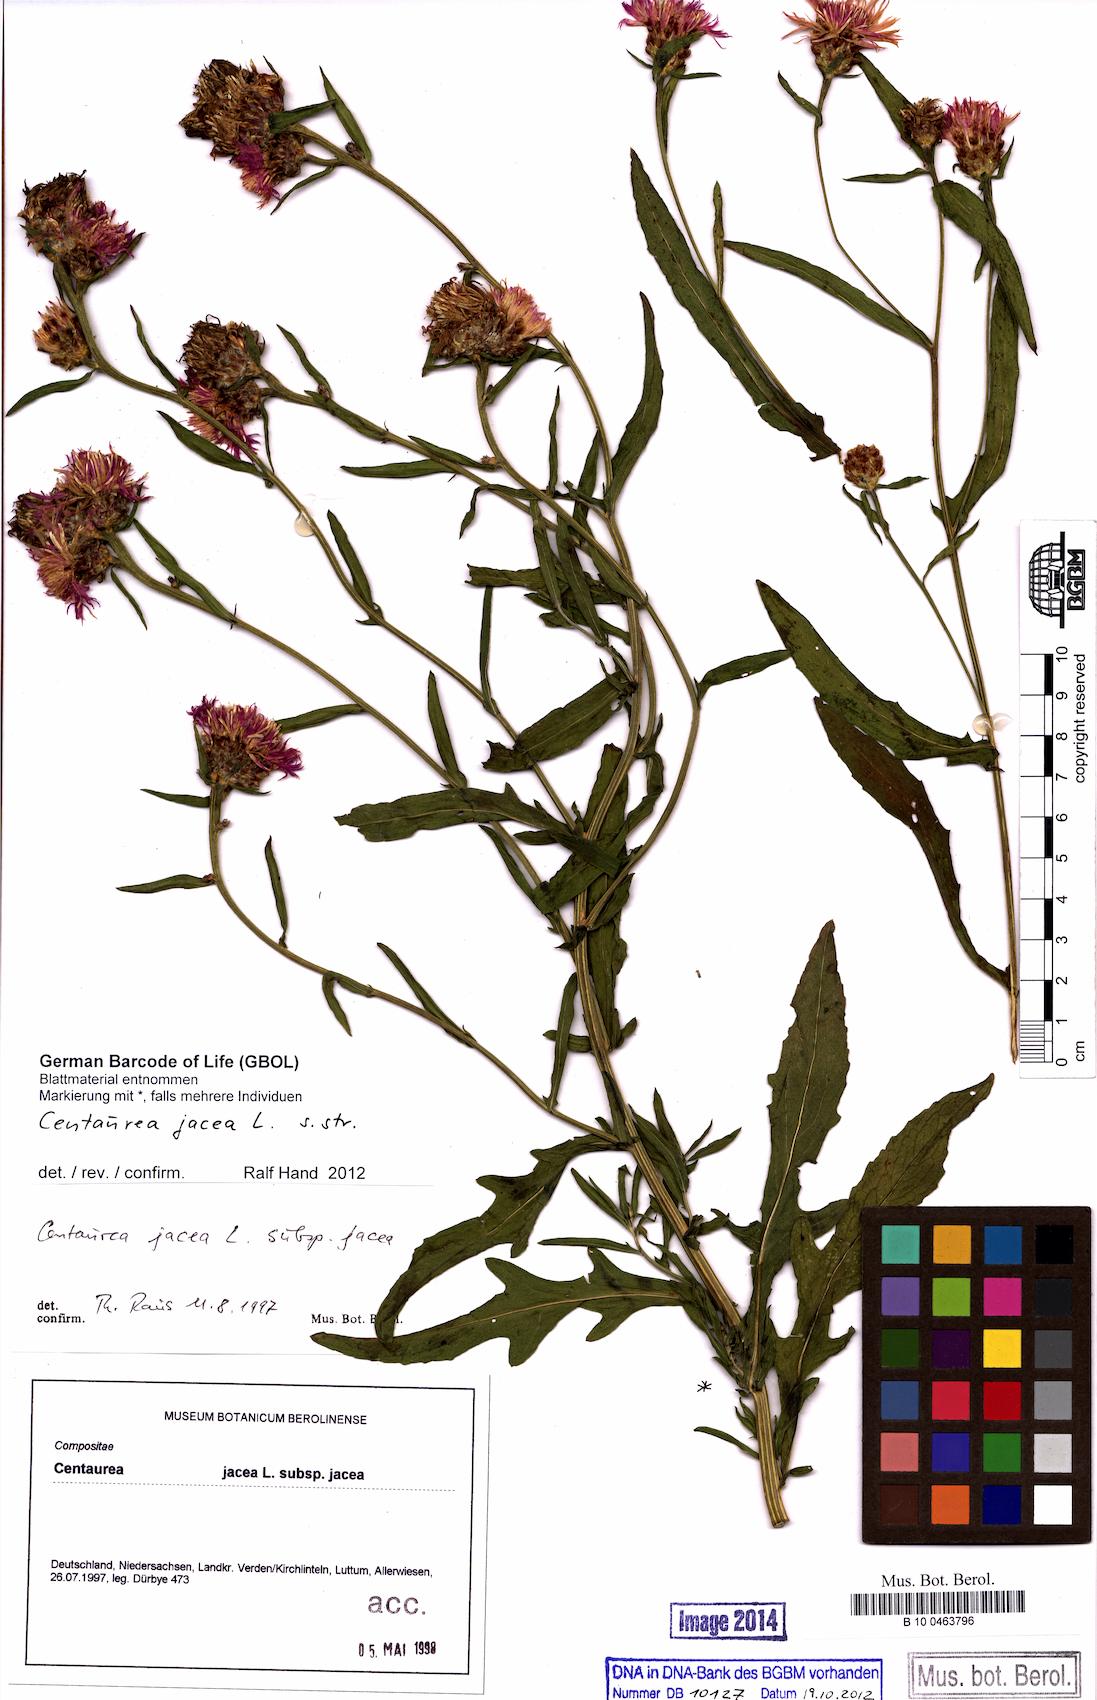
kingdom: Plantae
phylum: Tracheophyta
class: Magnoliopsida
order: Asterales
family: Asteraceae
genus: Centaurea
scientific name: Centaurea jacea
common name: Brown knapweed
